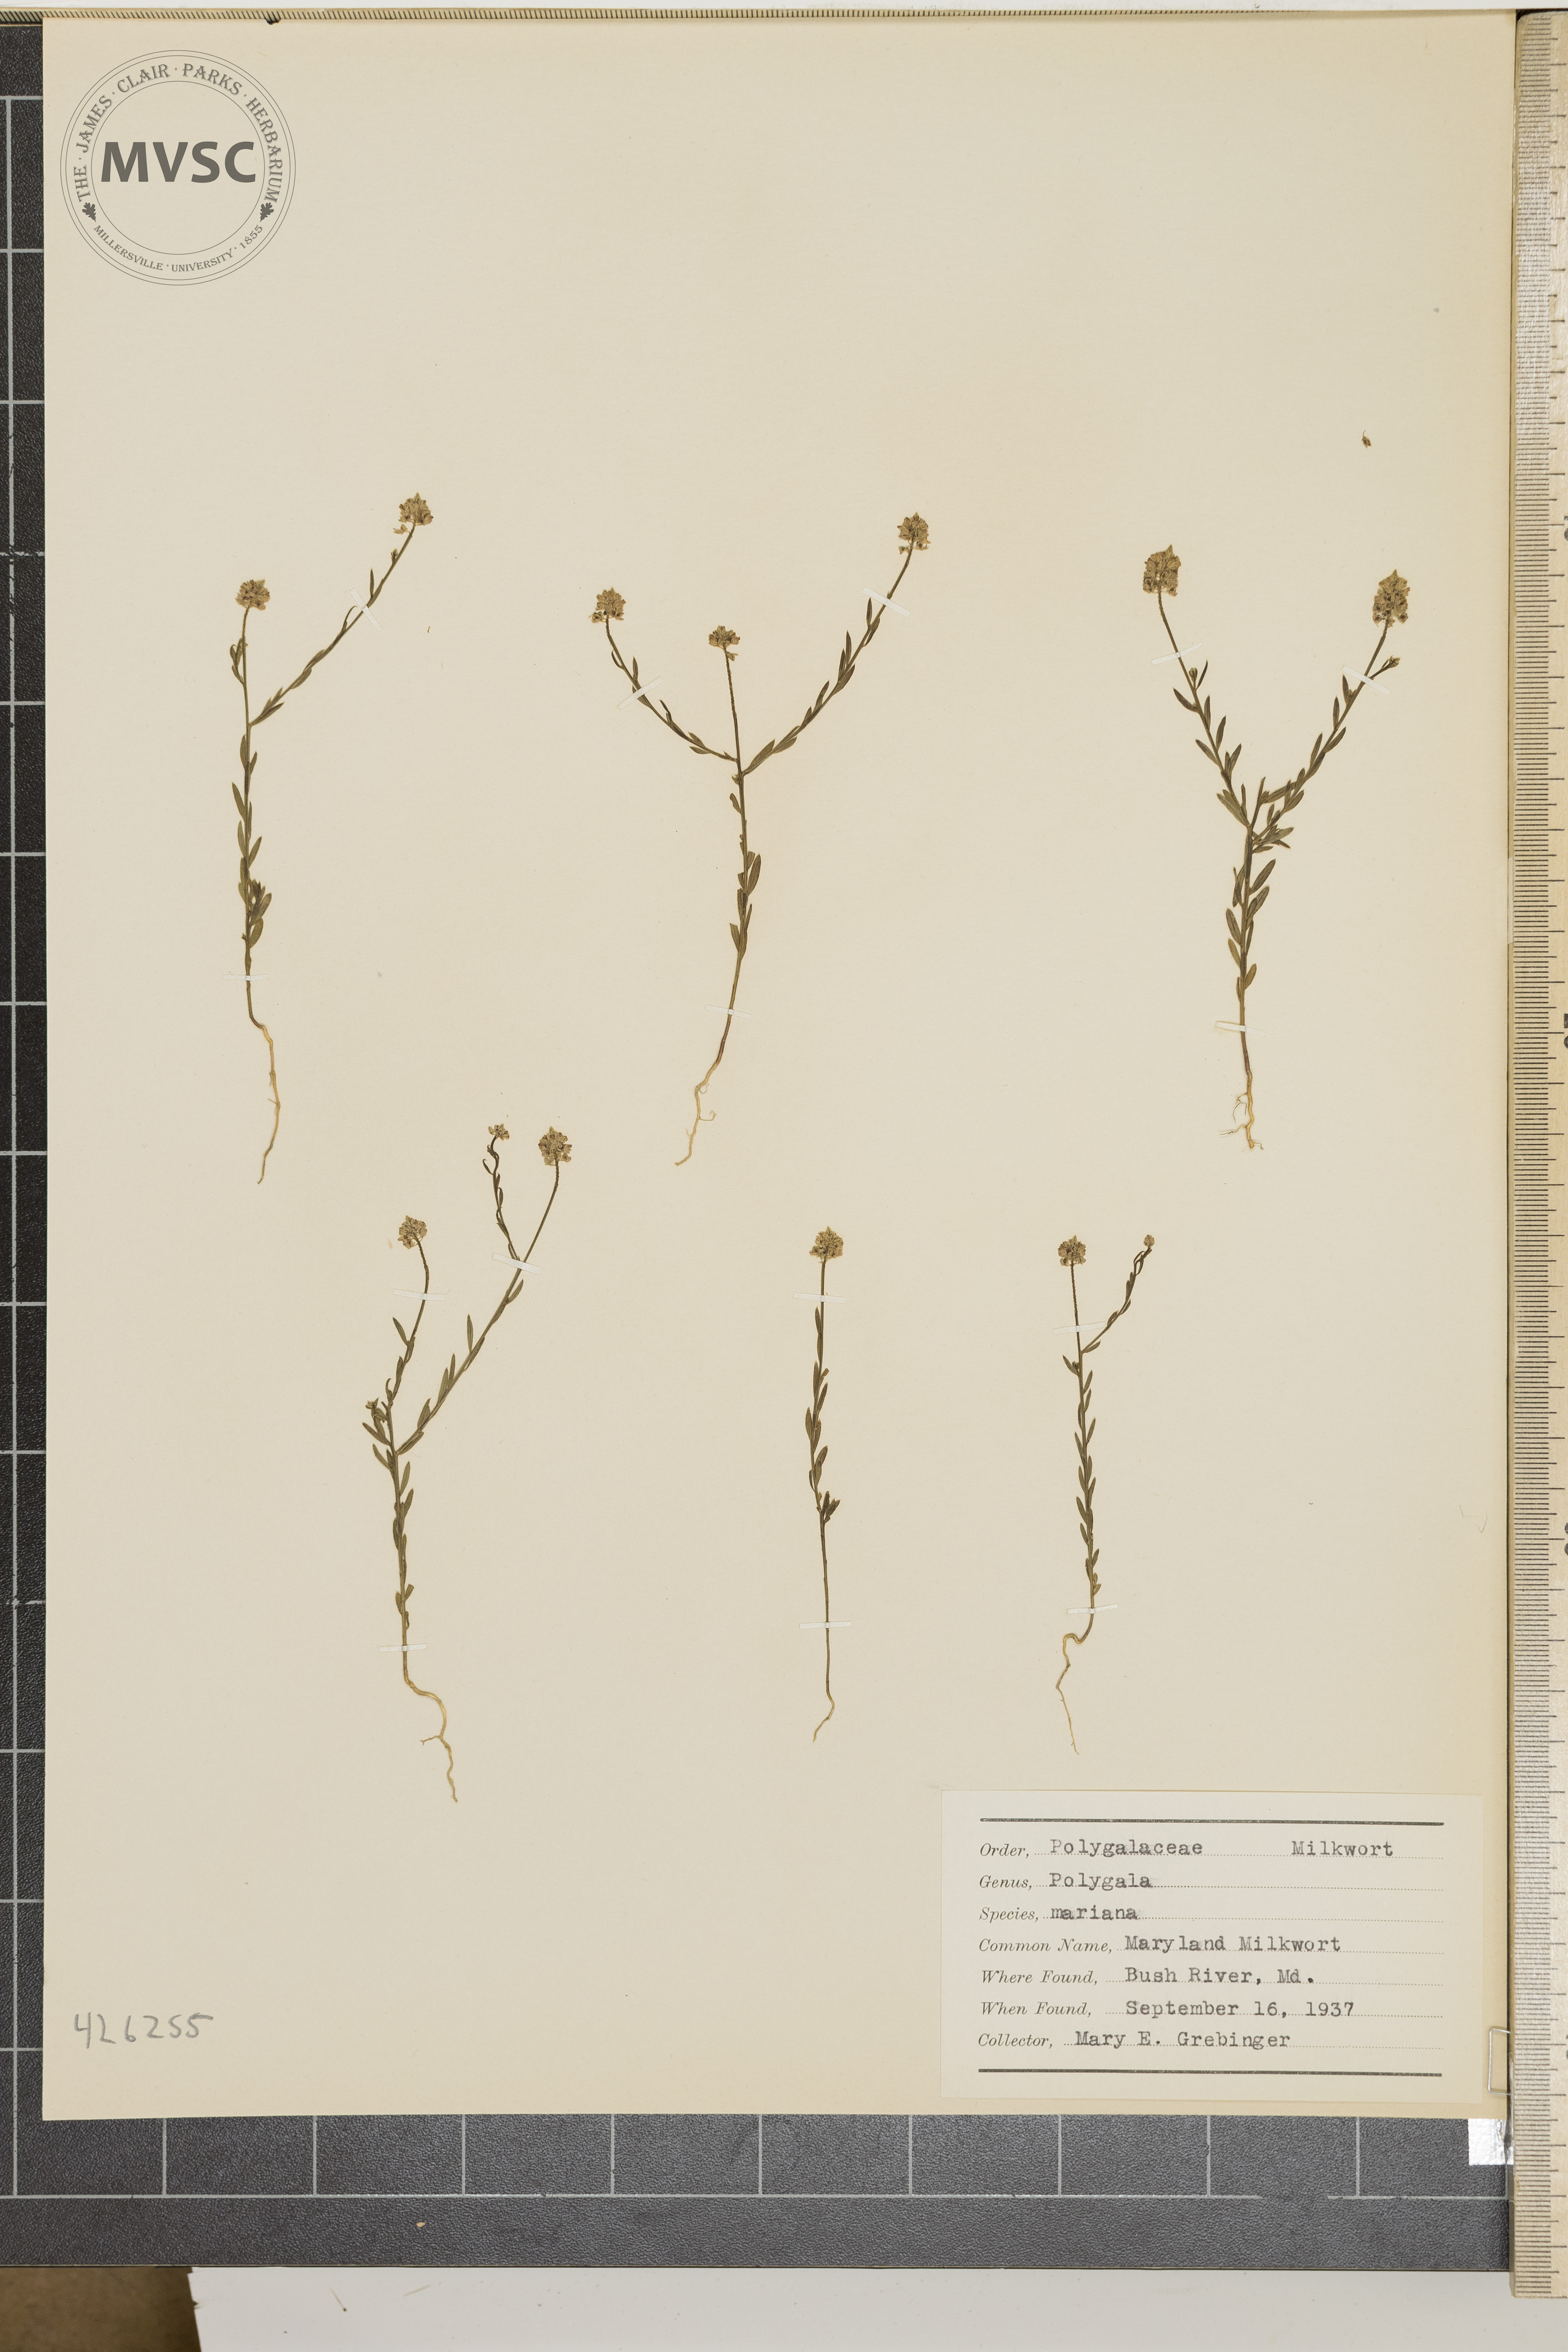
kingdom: Plantae
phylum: Tracheophyta
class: Magnoliopsida
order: Fabales
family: Polygalaceae
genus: Polygala
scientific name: Polygala mariana
